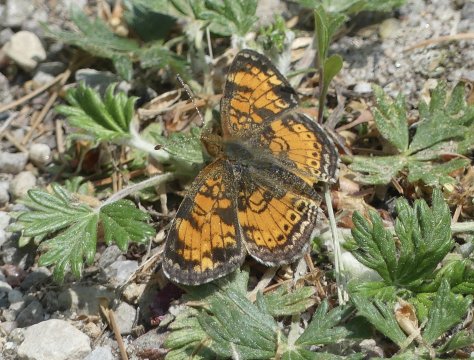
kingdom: Animalia
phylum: Arthropoda
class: Insecta
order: Lepidoptera
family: Nymphalidae
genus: Phyciodes
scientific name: Phyciodes tharos
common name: Pearl Crescent
